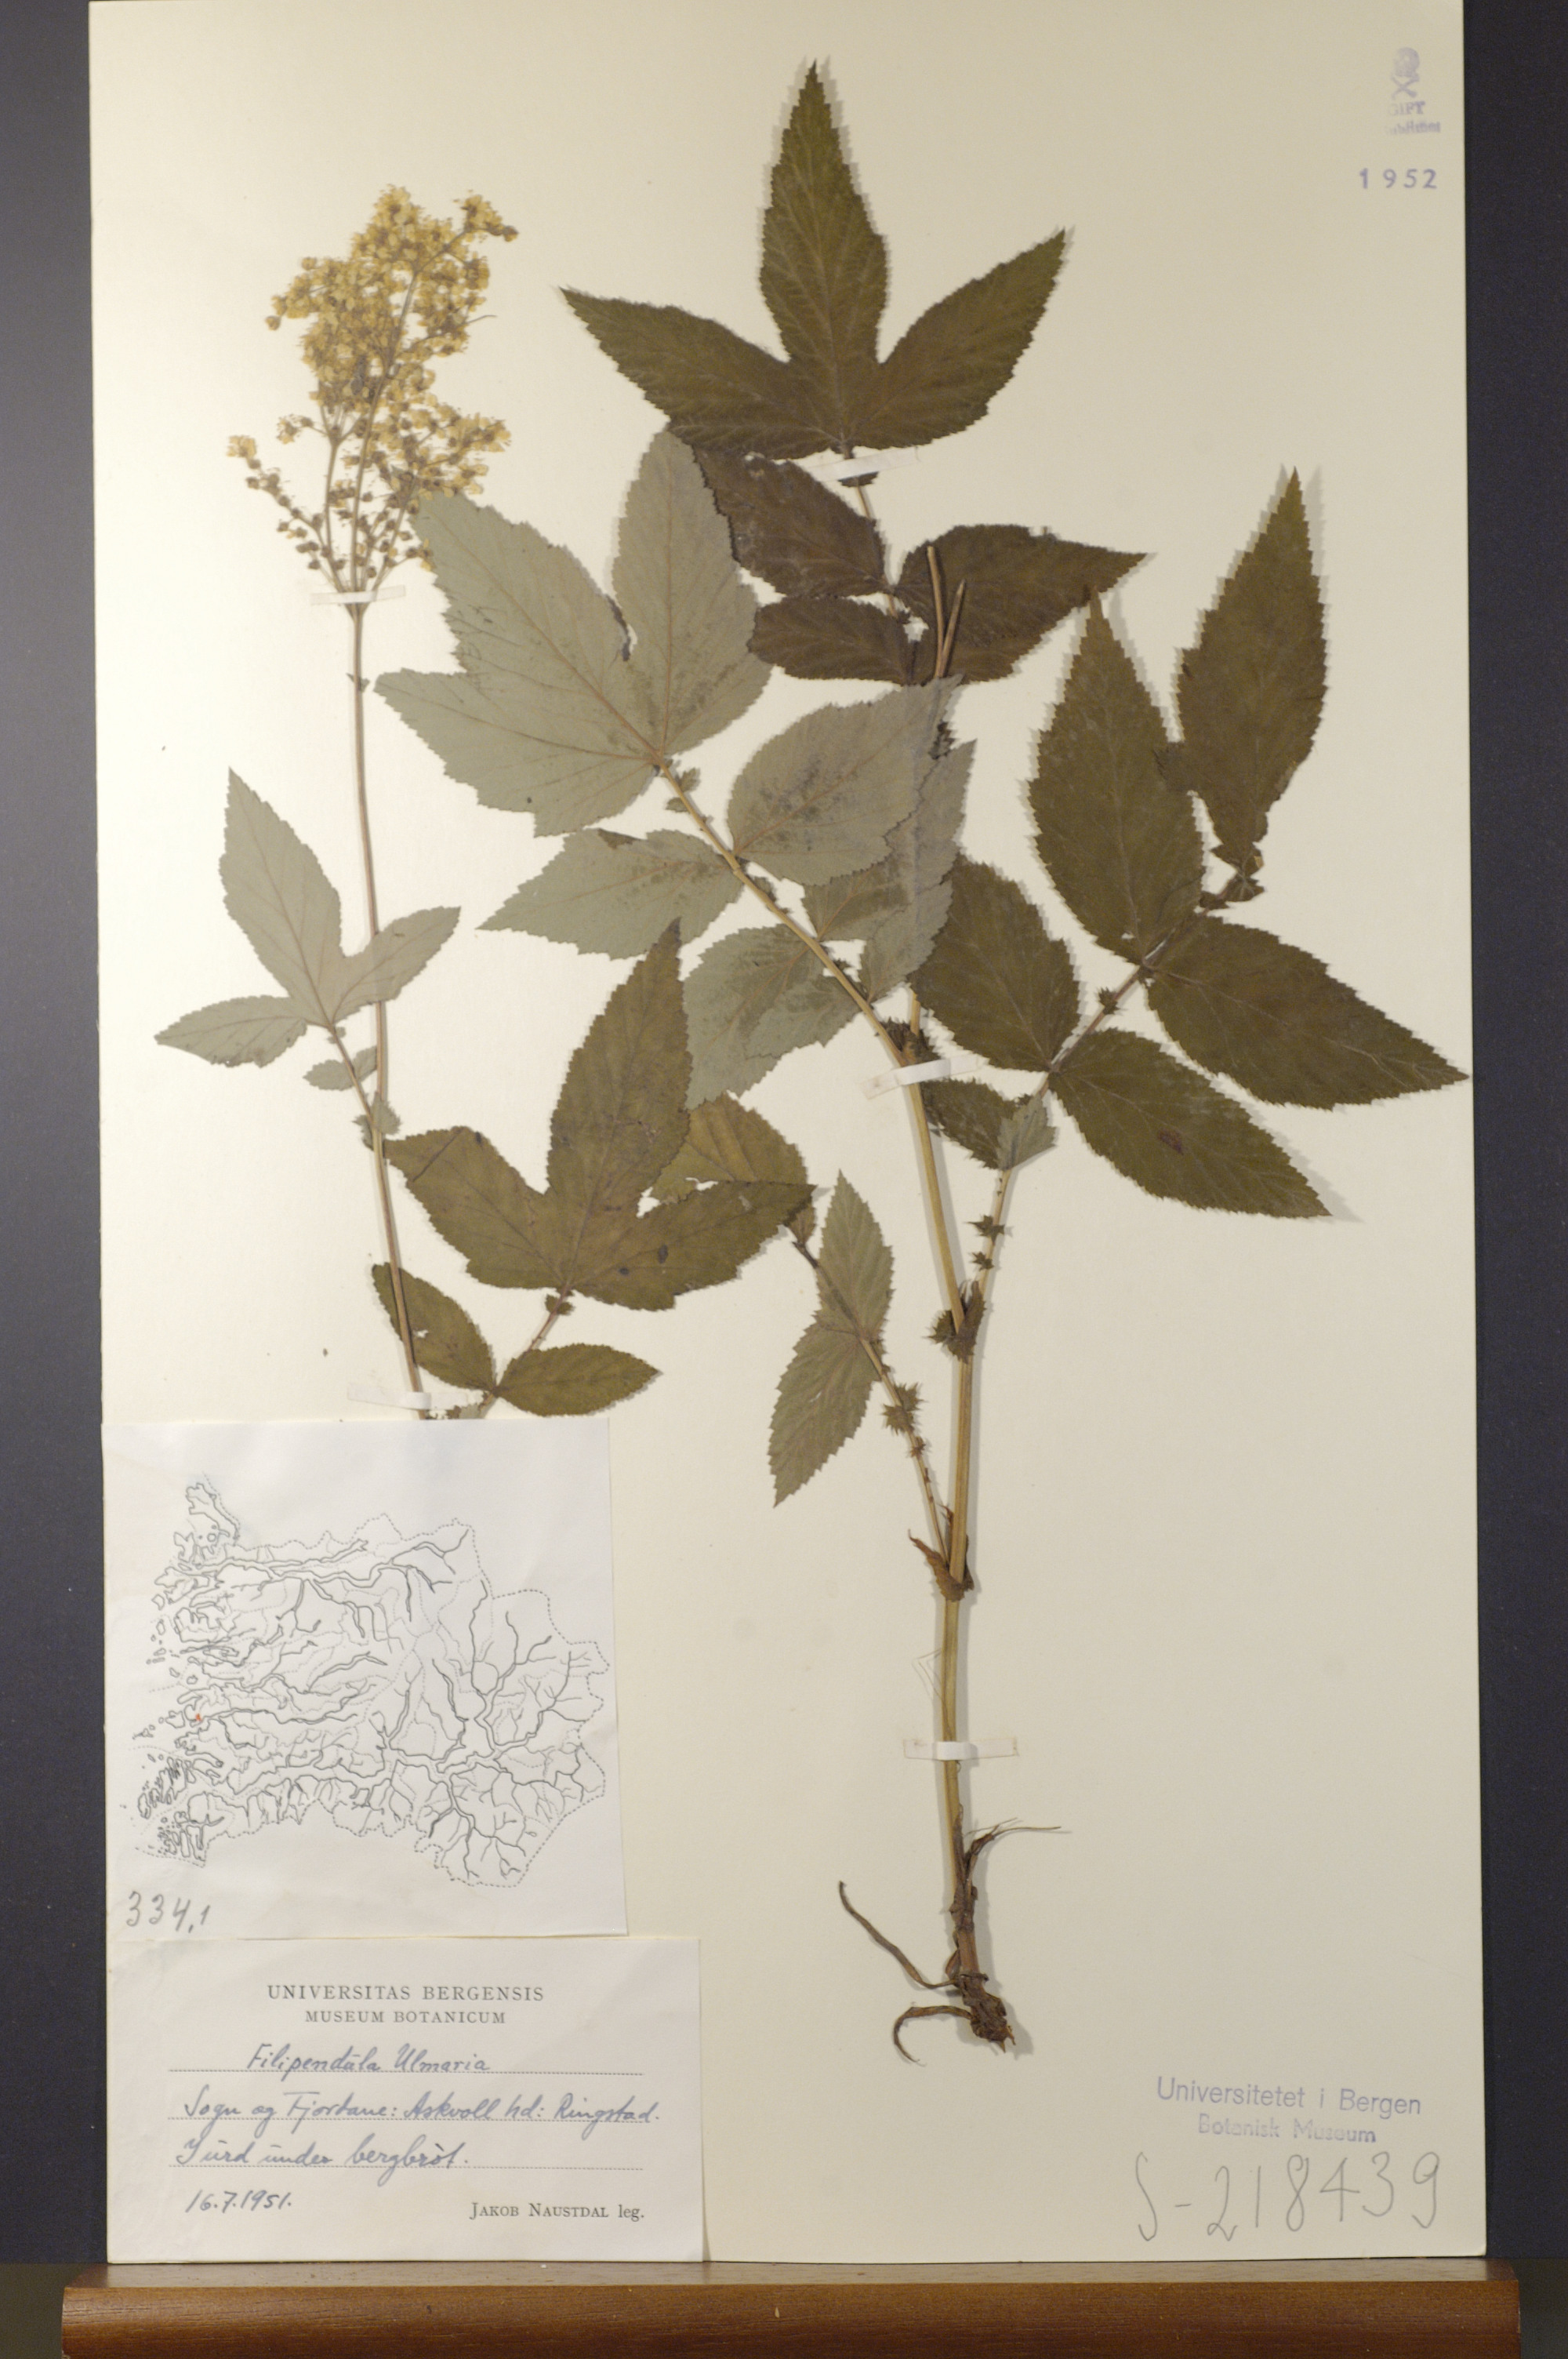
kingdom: Plantae
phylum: Tracheophyta
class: Magnoliopsida
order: Rosales
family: Rosaceae
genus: Filipendula
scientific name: Filipendula ulmaria
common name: Meadowsweet
